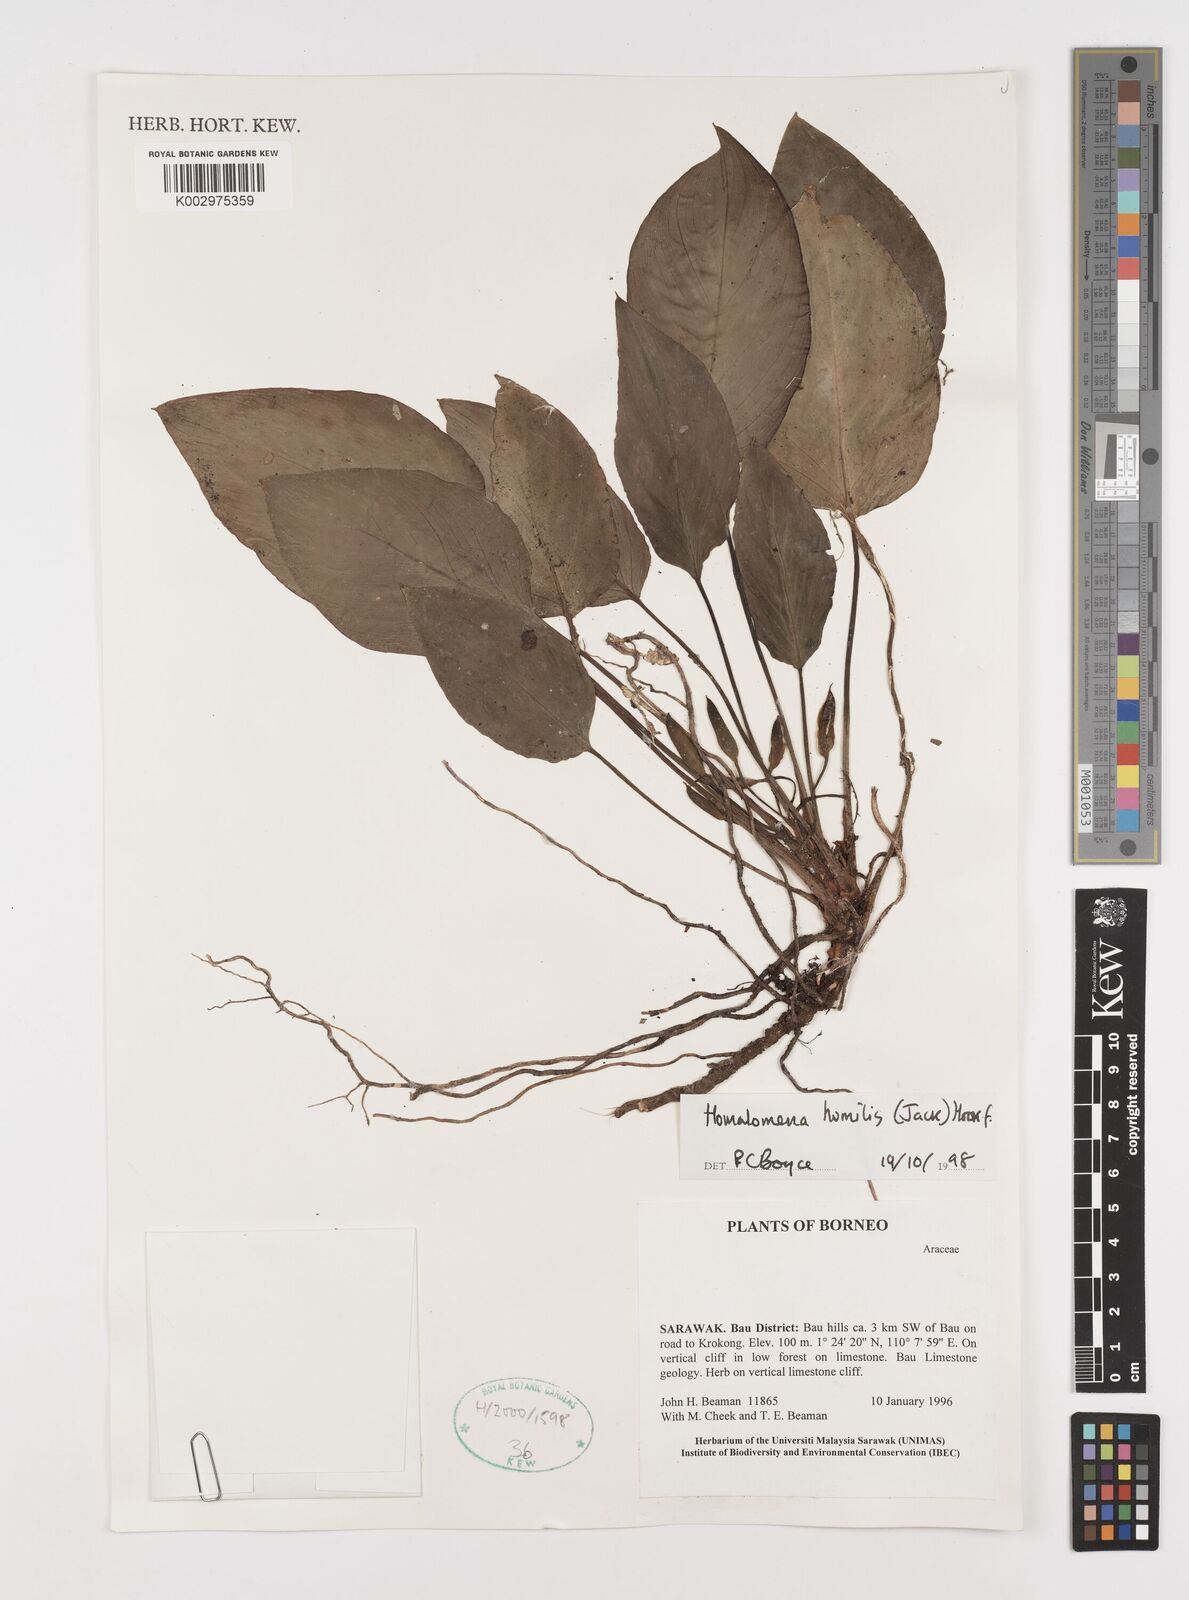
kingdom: Plantae
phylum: Tracheophyta
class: Liliopsida
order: Alismatales
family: Araceae
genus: Homalomena
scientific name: Homalomena humilis
